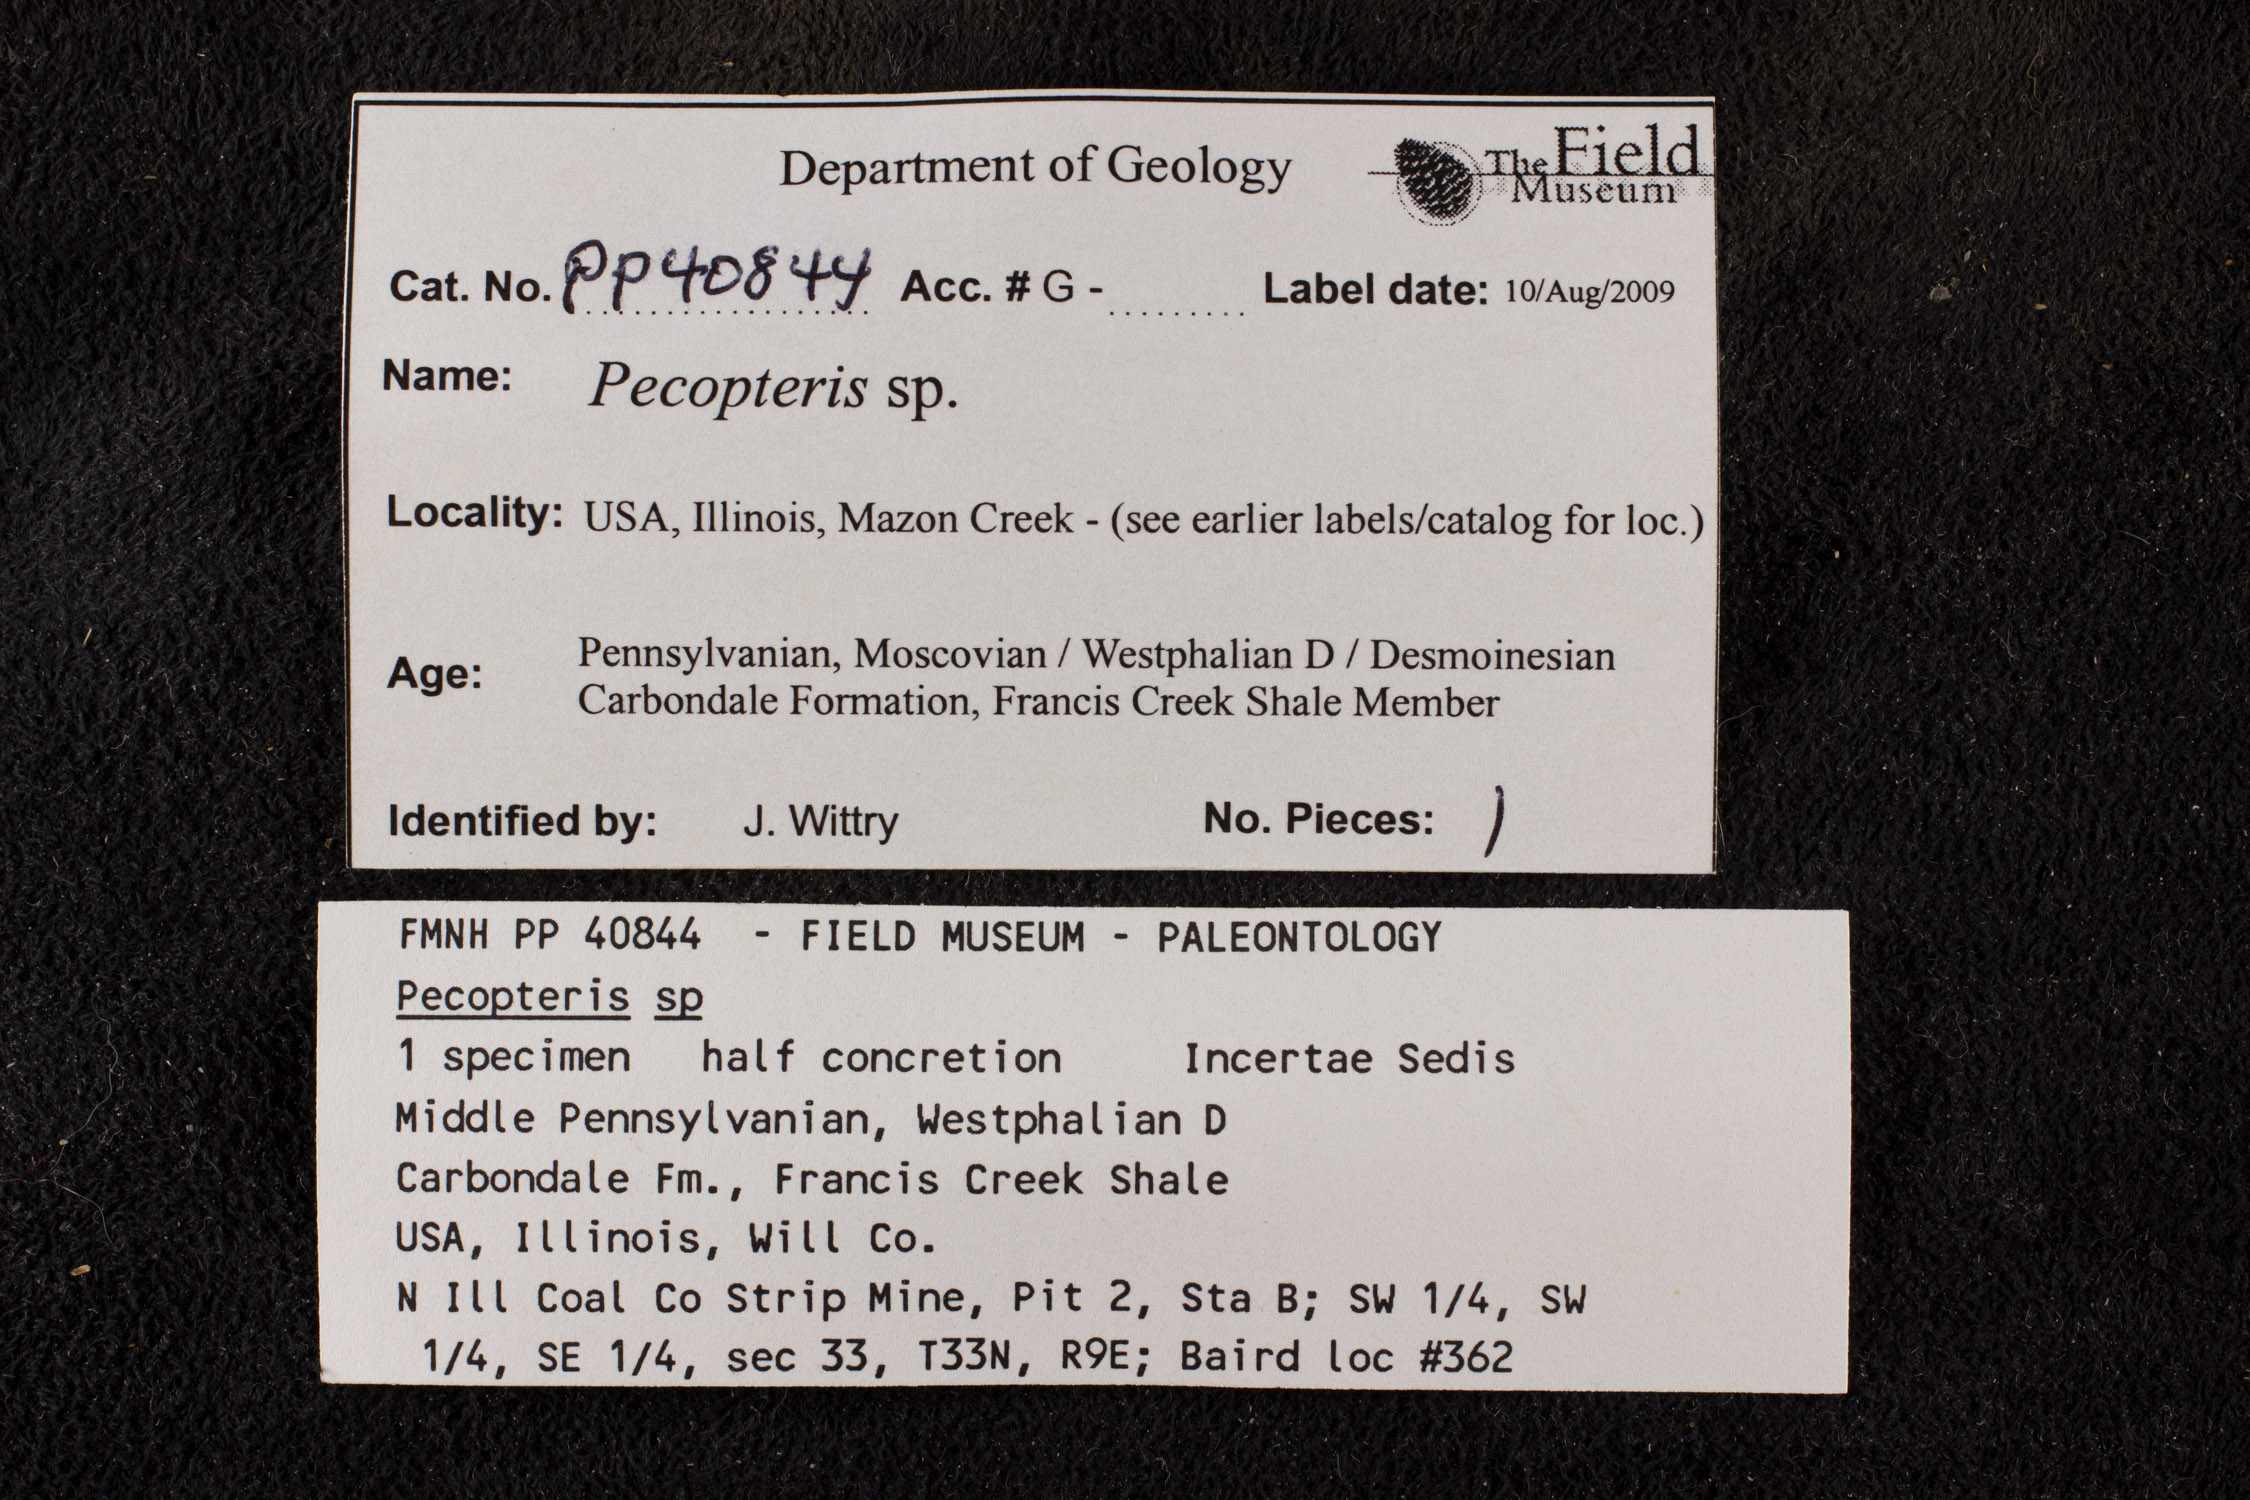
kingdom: Plantae
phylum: Tracheophyta
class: Polypodiopsida
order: Marattiales
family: Asterothecaceae
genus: Pecopteris
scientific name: Pecopteris
